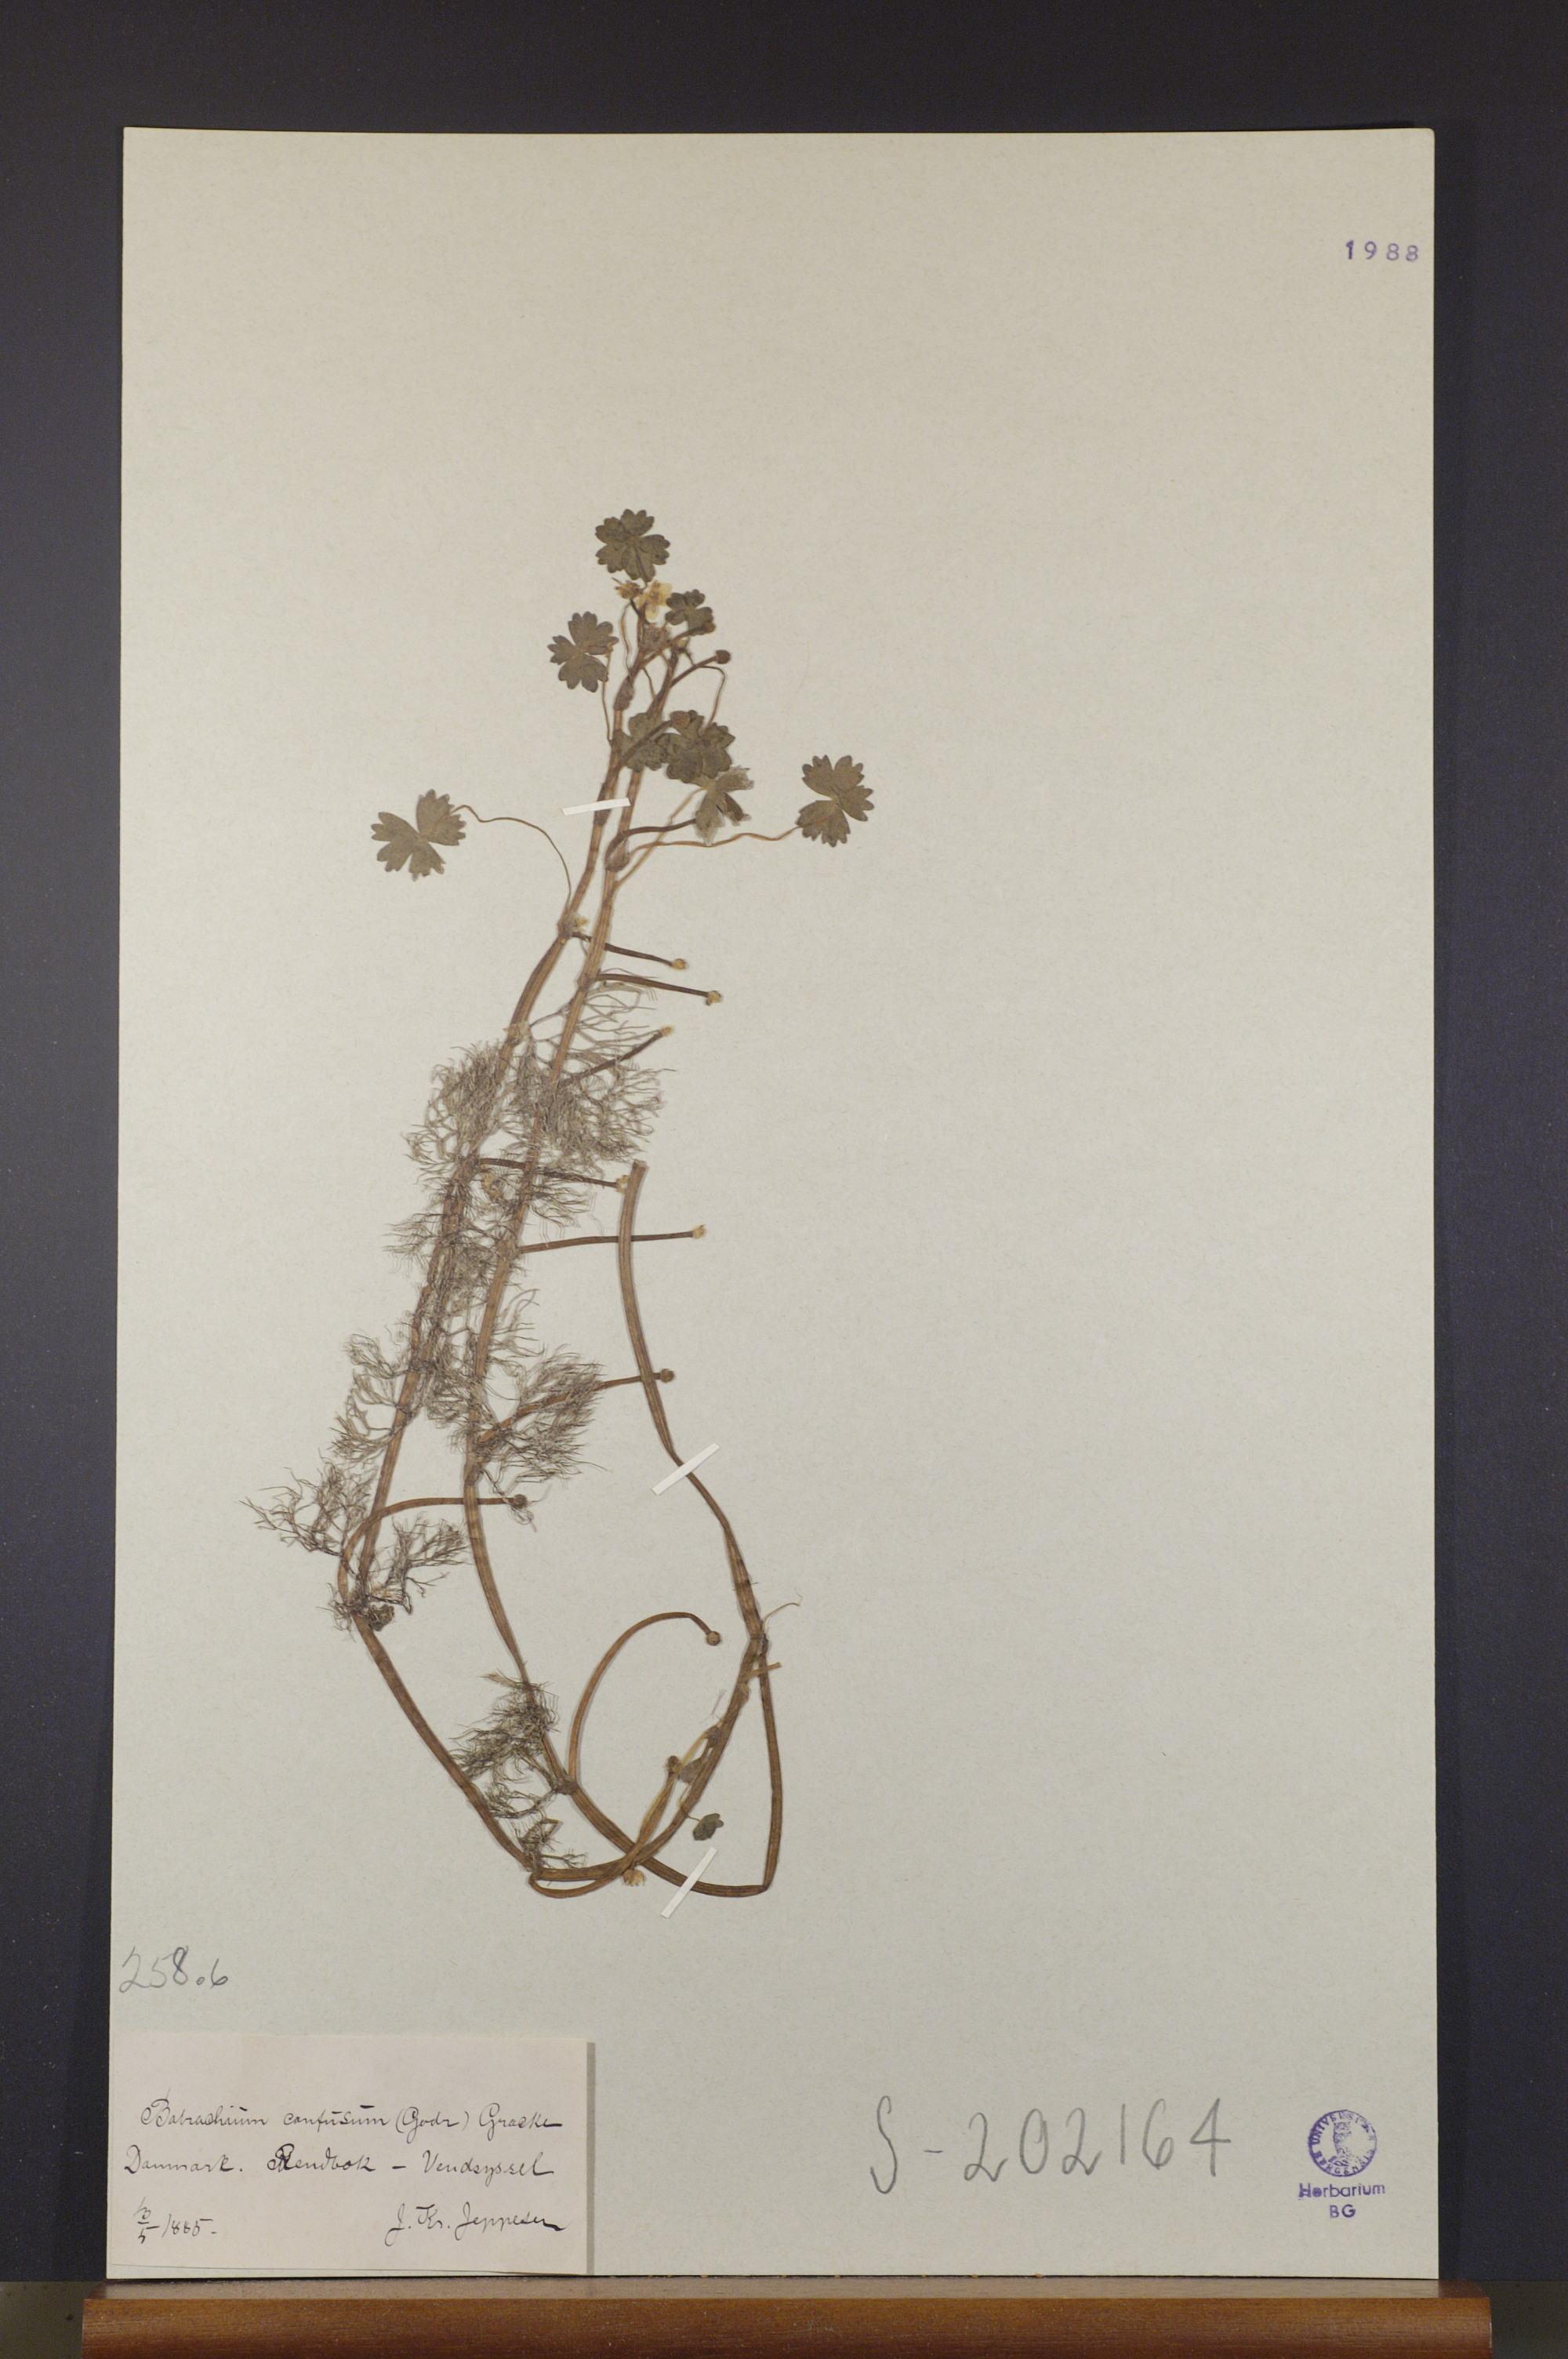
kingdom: Plantae
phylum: Tracheophyta
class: Magnoliopsida
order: Ranunculales
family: Ranunculaceae
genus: Ranunculus
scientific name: Ranunculus peltatus
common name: Pond water-crowfoot
